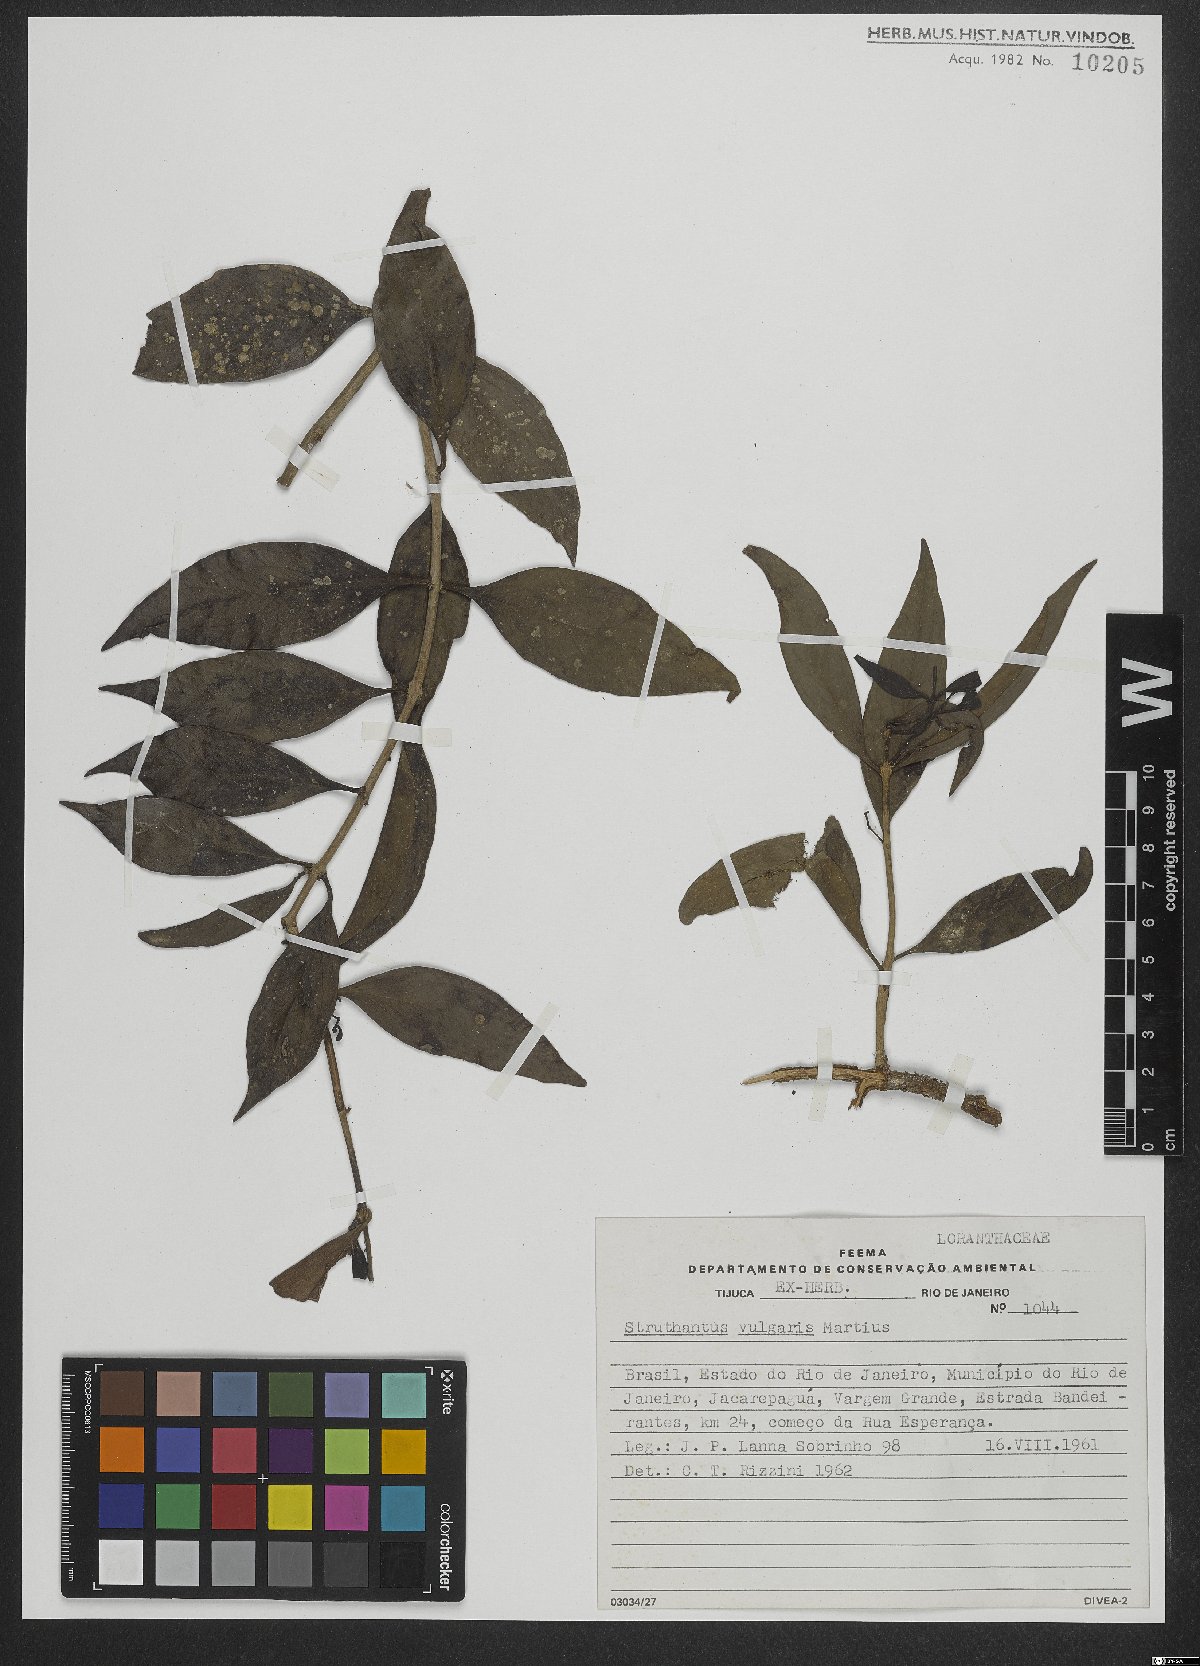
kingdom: Plantae
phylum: Tracheophyta
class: Magnoliopsida
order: Santalales
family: Loranthaceae
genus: Struthanthus
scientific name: Struthanthus martianus
